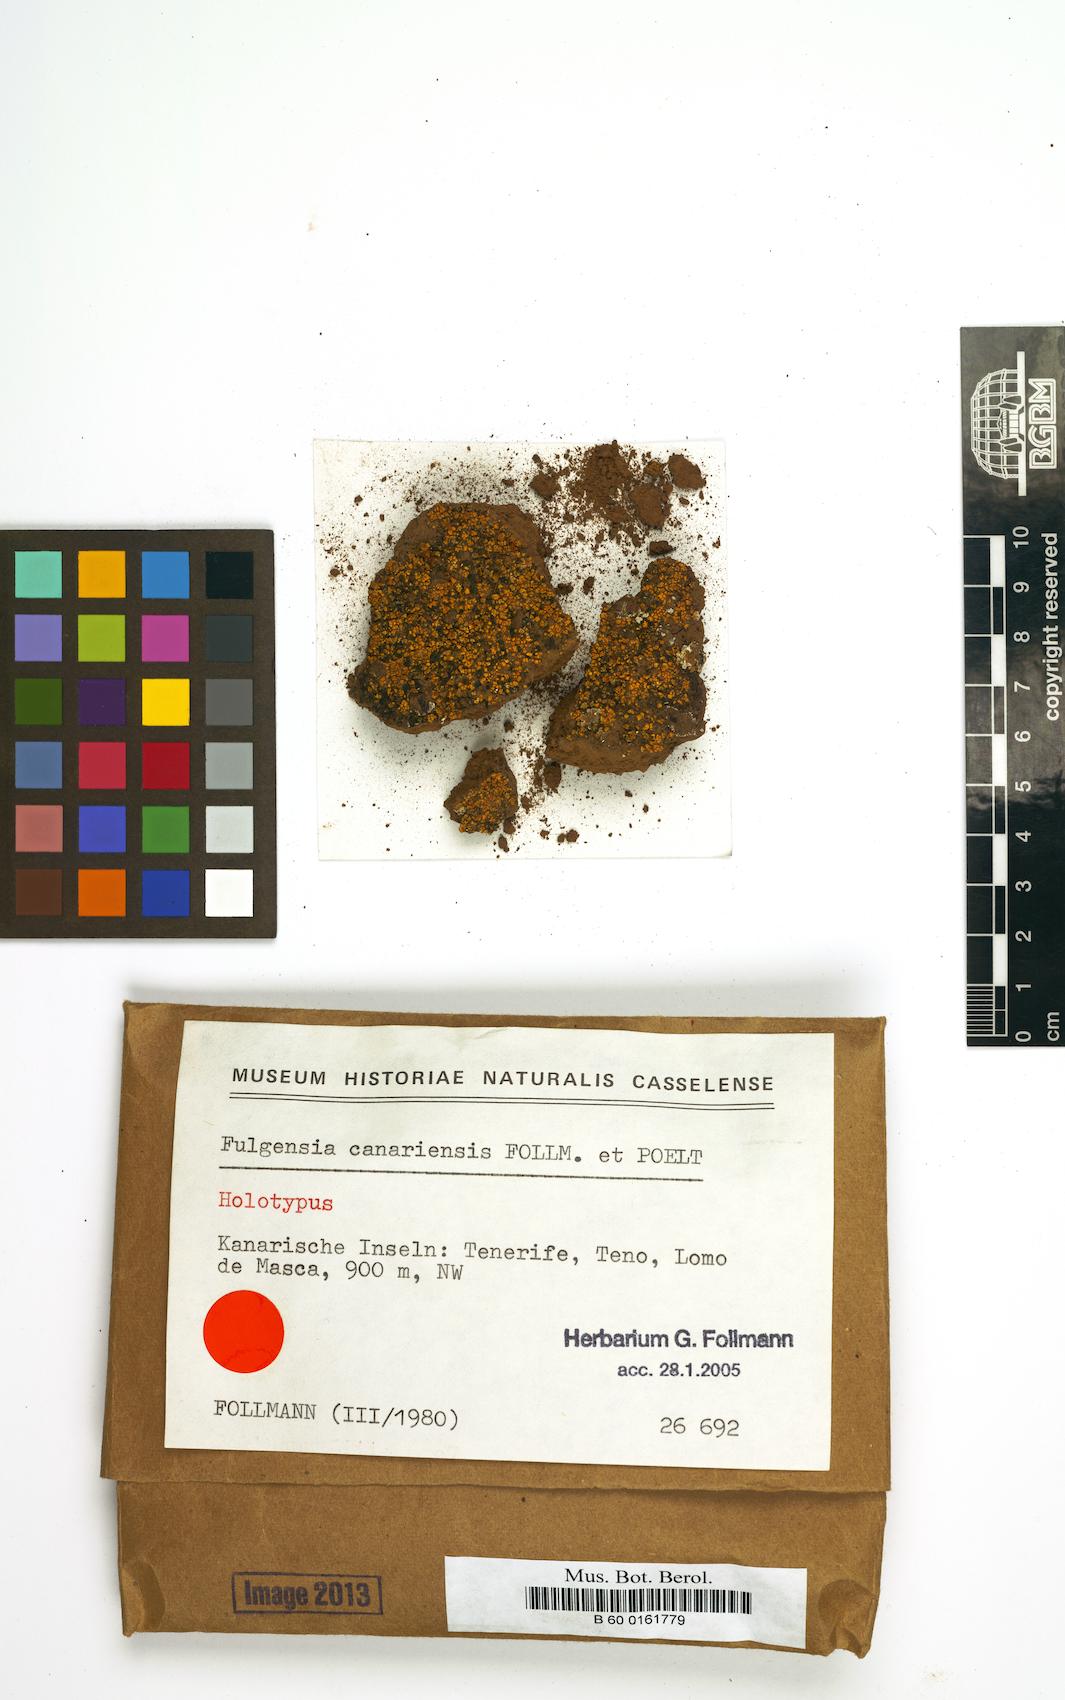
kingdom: Fungi
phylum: Ascomycota
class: Lecanoromycetes
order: Teloschistales
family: Teloschistaceae
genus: Gyalolechia
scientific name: Gyalolechia canariensis
